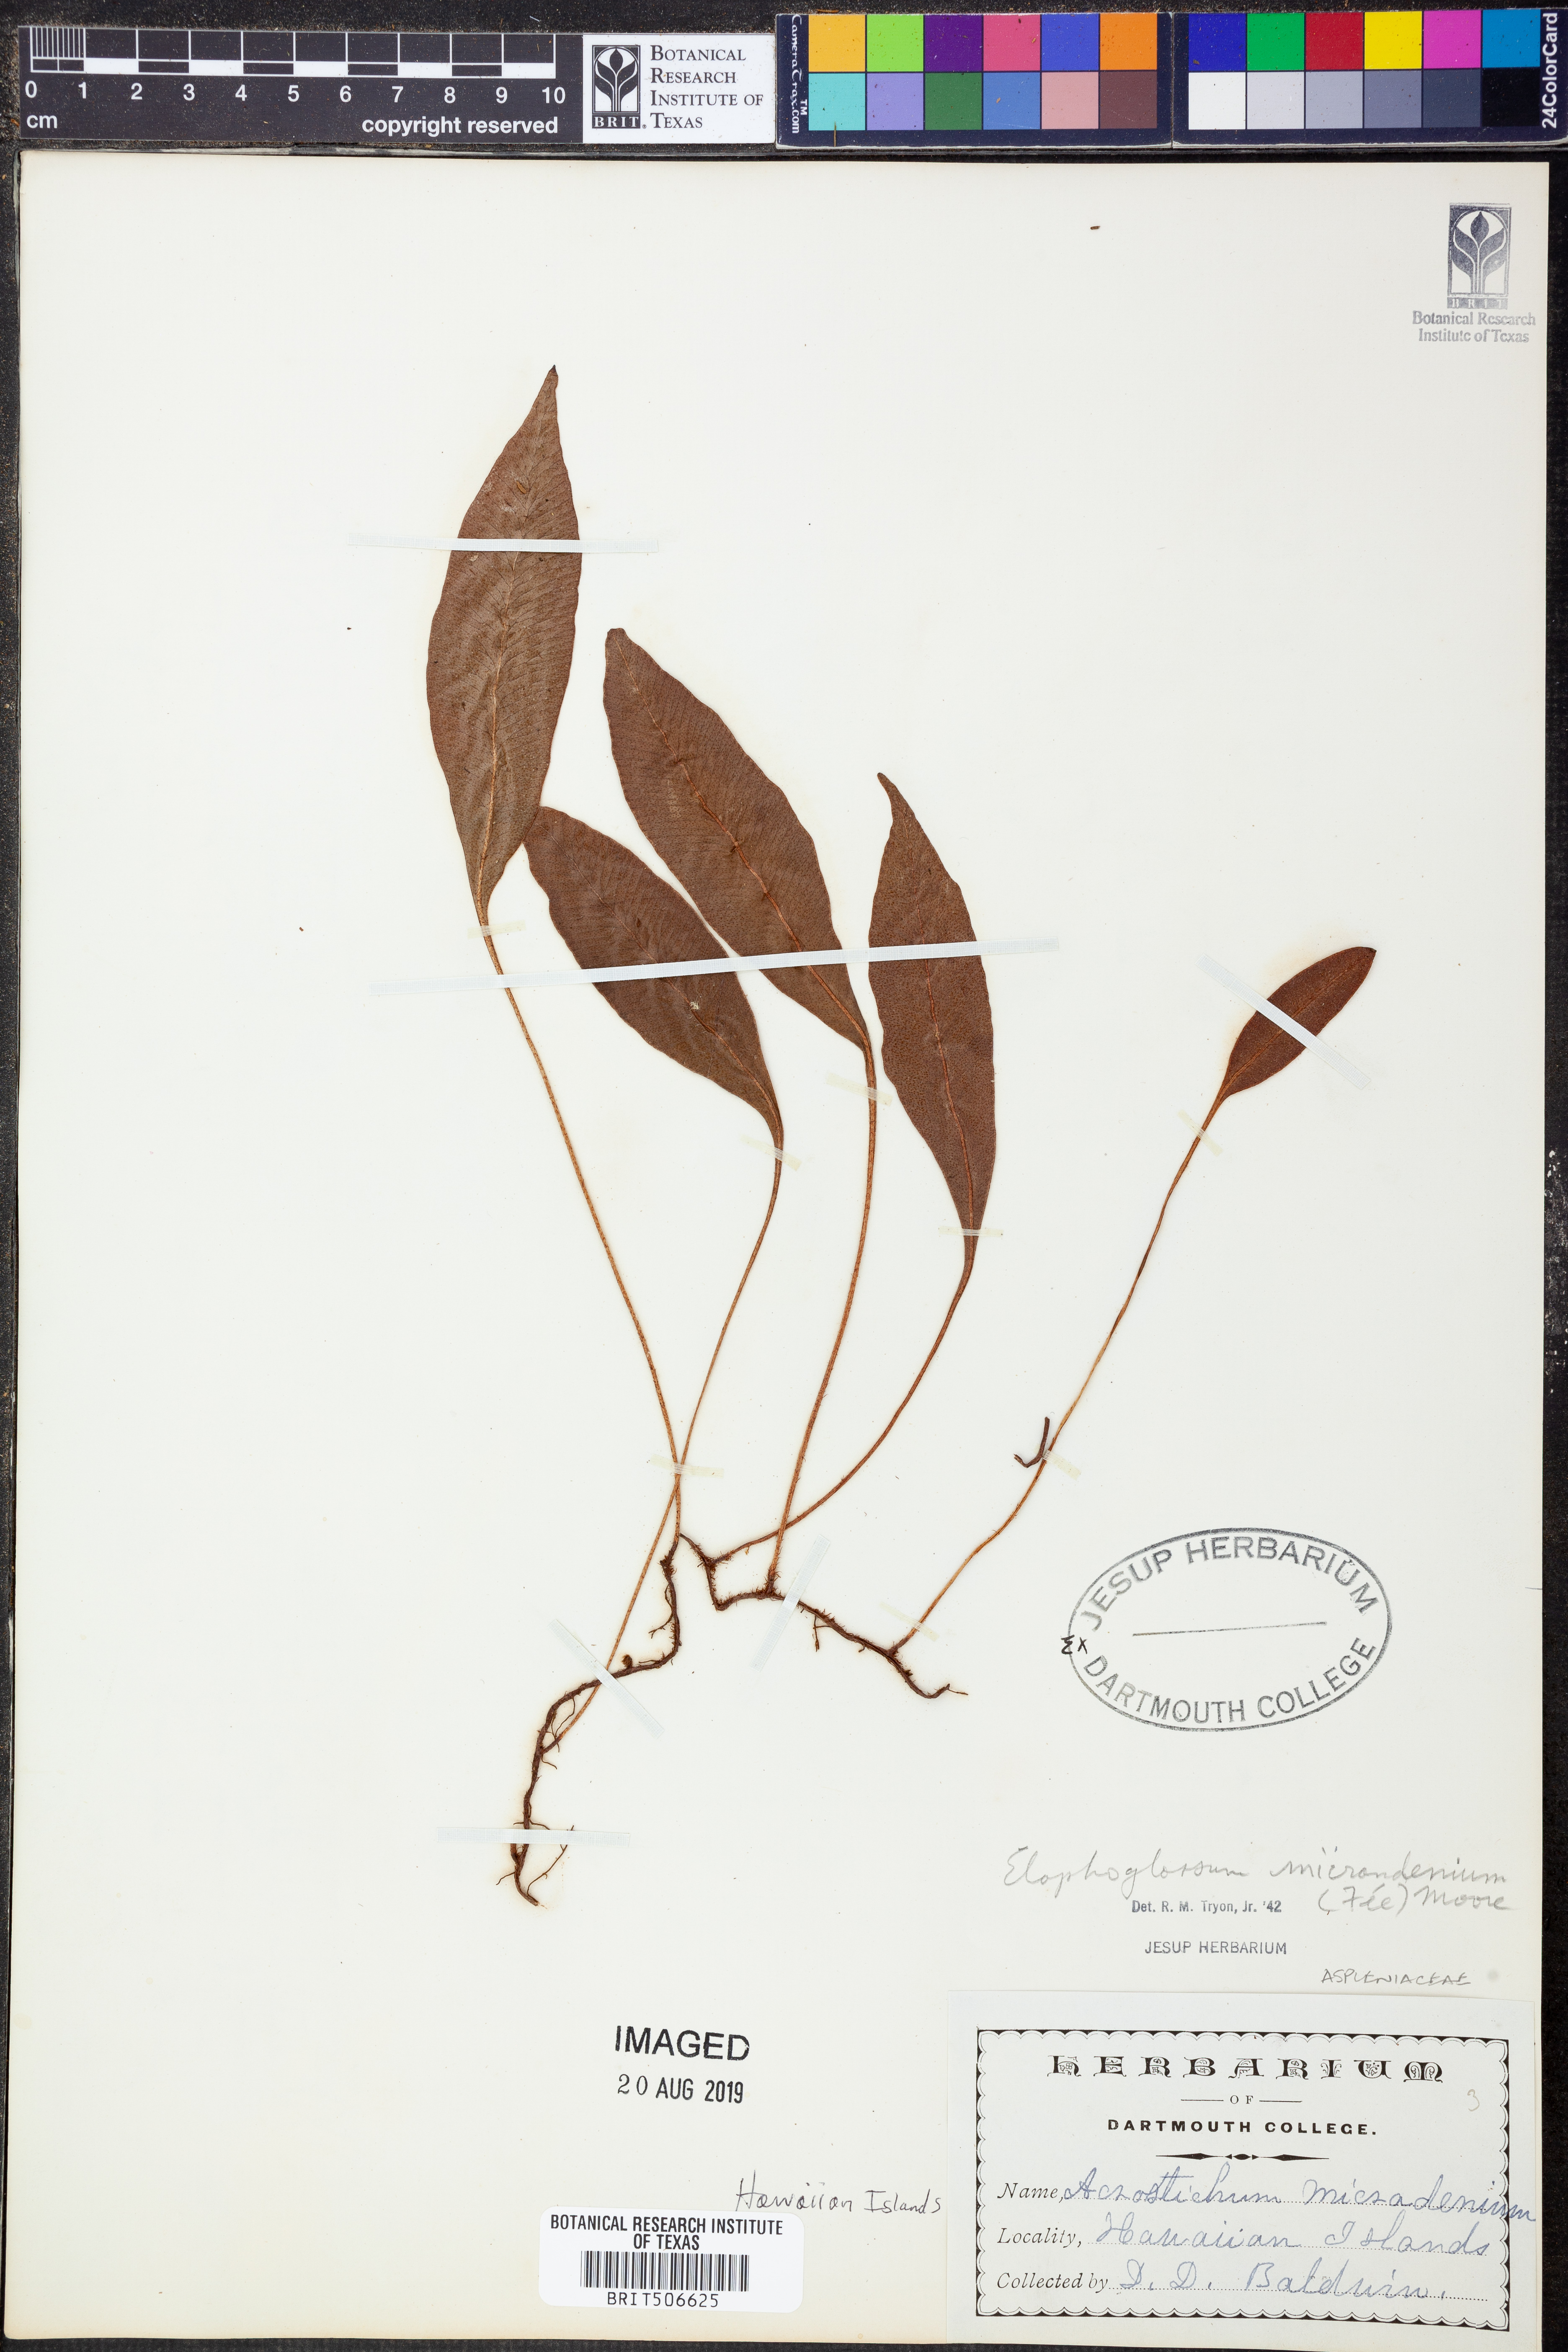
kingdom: Plantae
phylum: Tracheophyta
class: Polypodiopsida
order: Polypodiales
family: Dryopteridaceae
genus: Elaphoglossum
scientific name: Elaphoglossum micradenium
